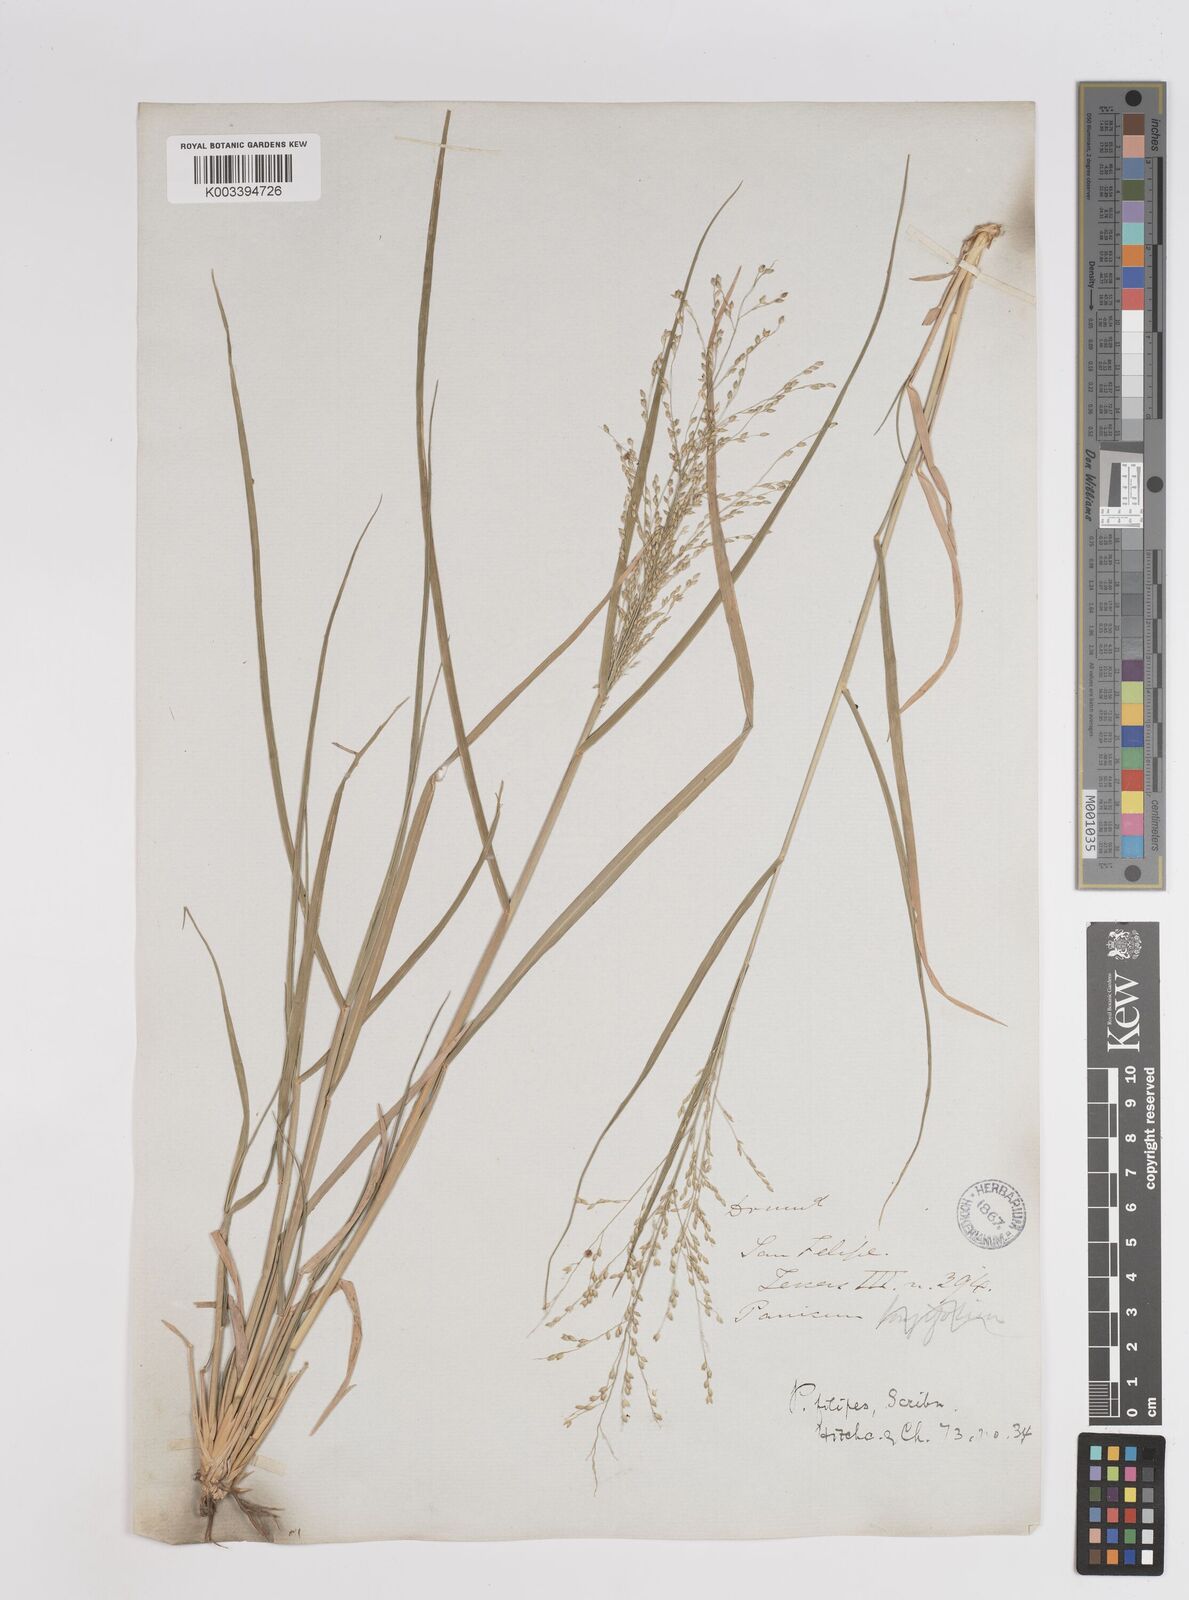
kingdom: Plantae
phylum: Tracheophyta
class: Liliopsida
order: Poales
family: Poaceae
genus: Panicum
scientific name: Panicum hallii
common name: Hall's witchgrass
